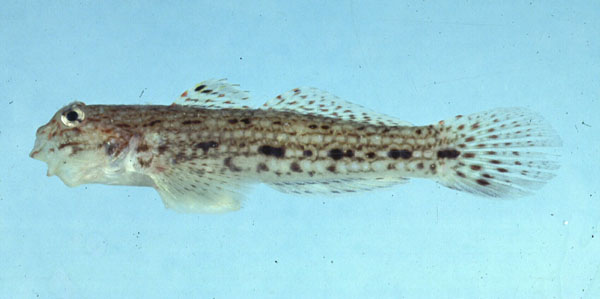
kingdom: Animalia
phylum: Chordata
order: Perciformes
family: Gobiidae
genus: Istigobius
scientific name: Istigobius decoratus
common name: Decorated goby
